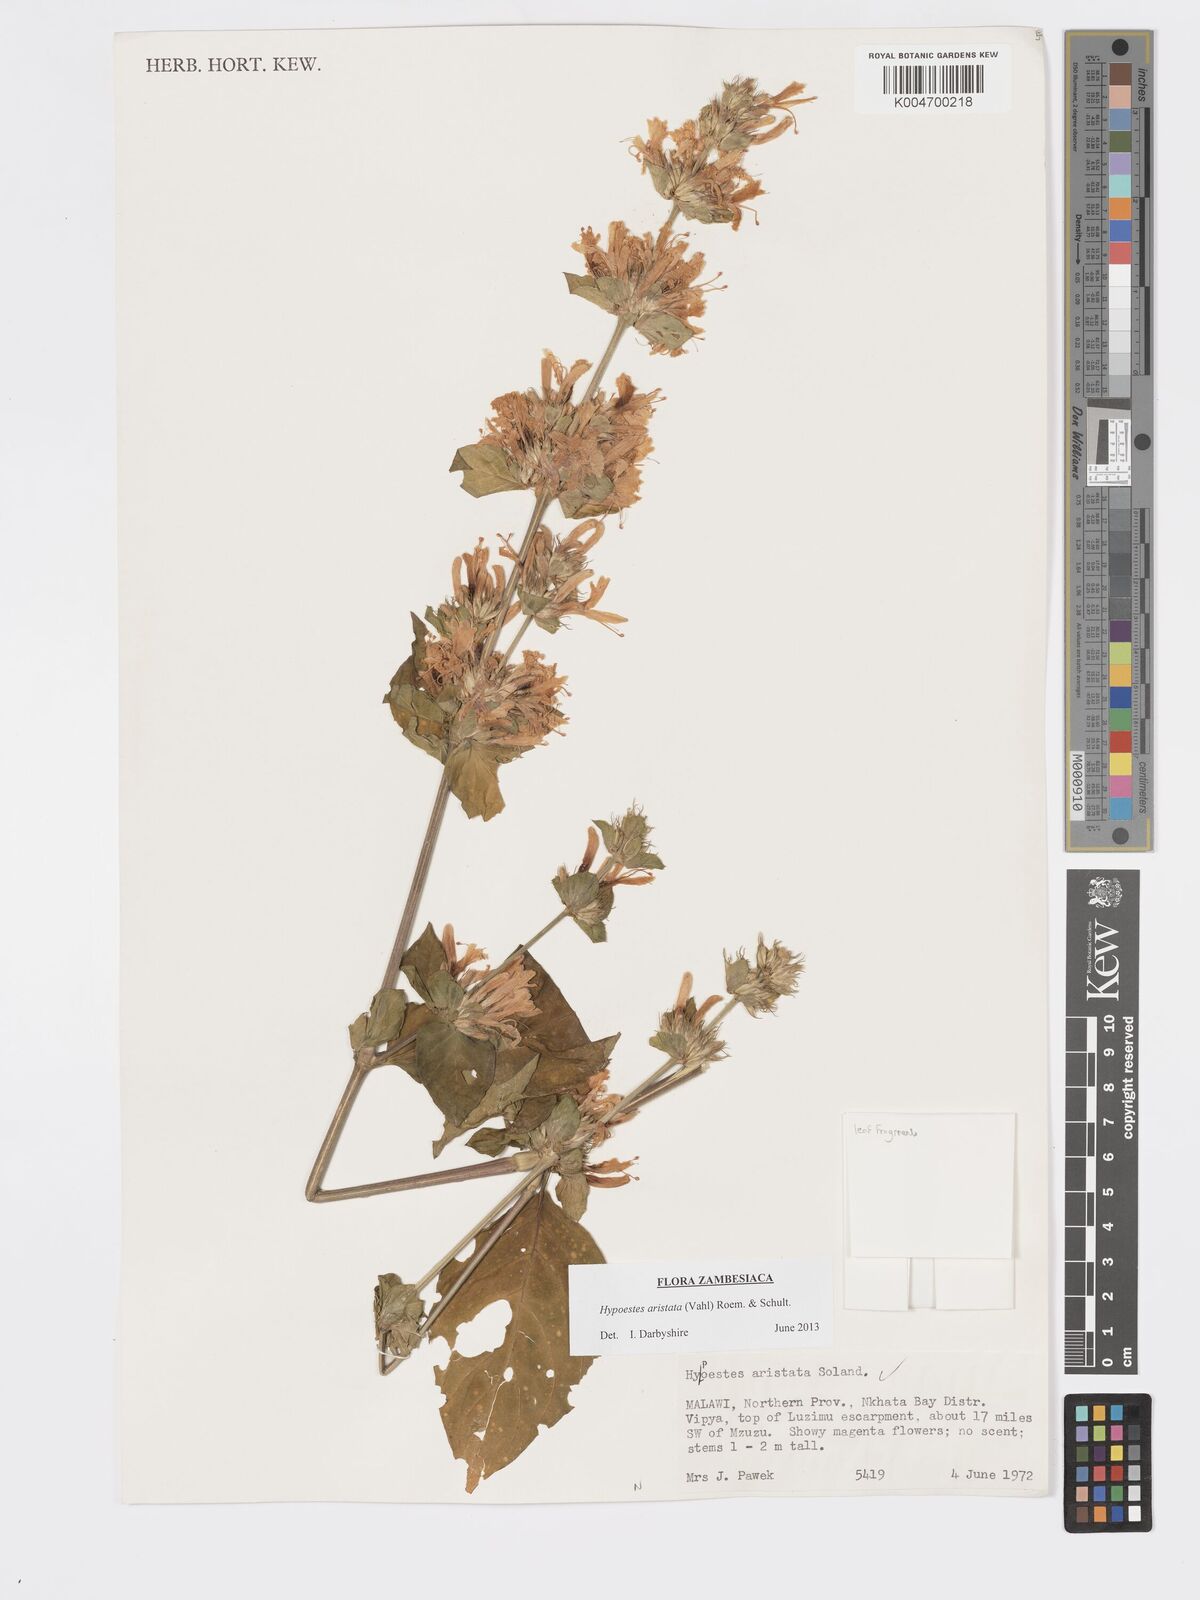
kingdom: Plantae
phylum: Tracheophyta
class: Magnoliopsida
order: Lamiales
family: Acanthaceae
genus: Hypoestes
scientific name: Hypoestes aristata
